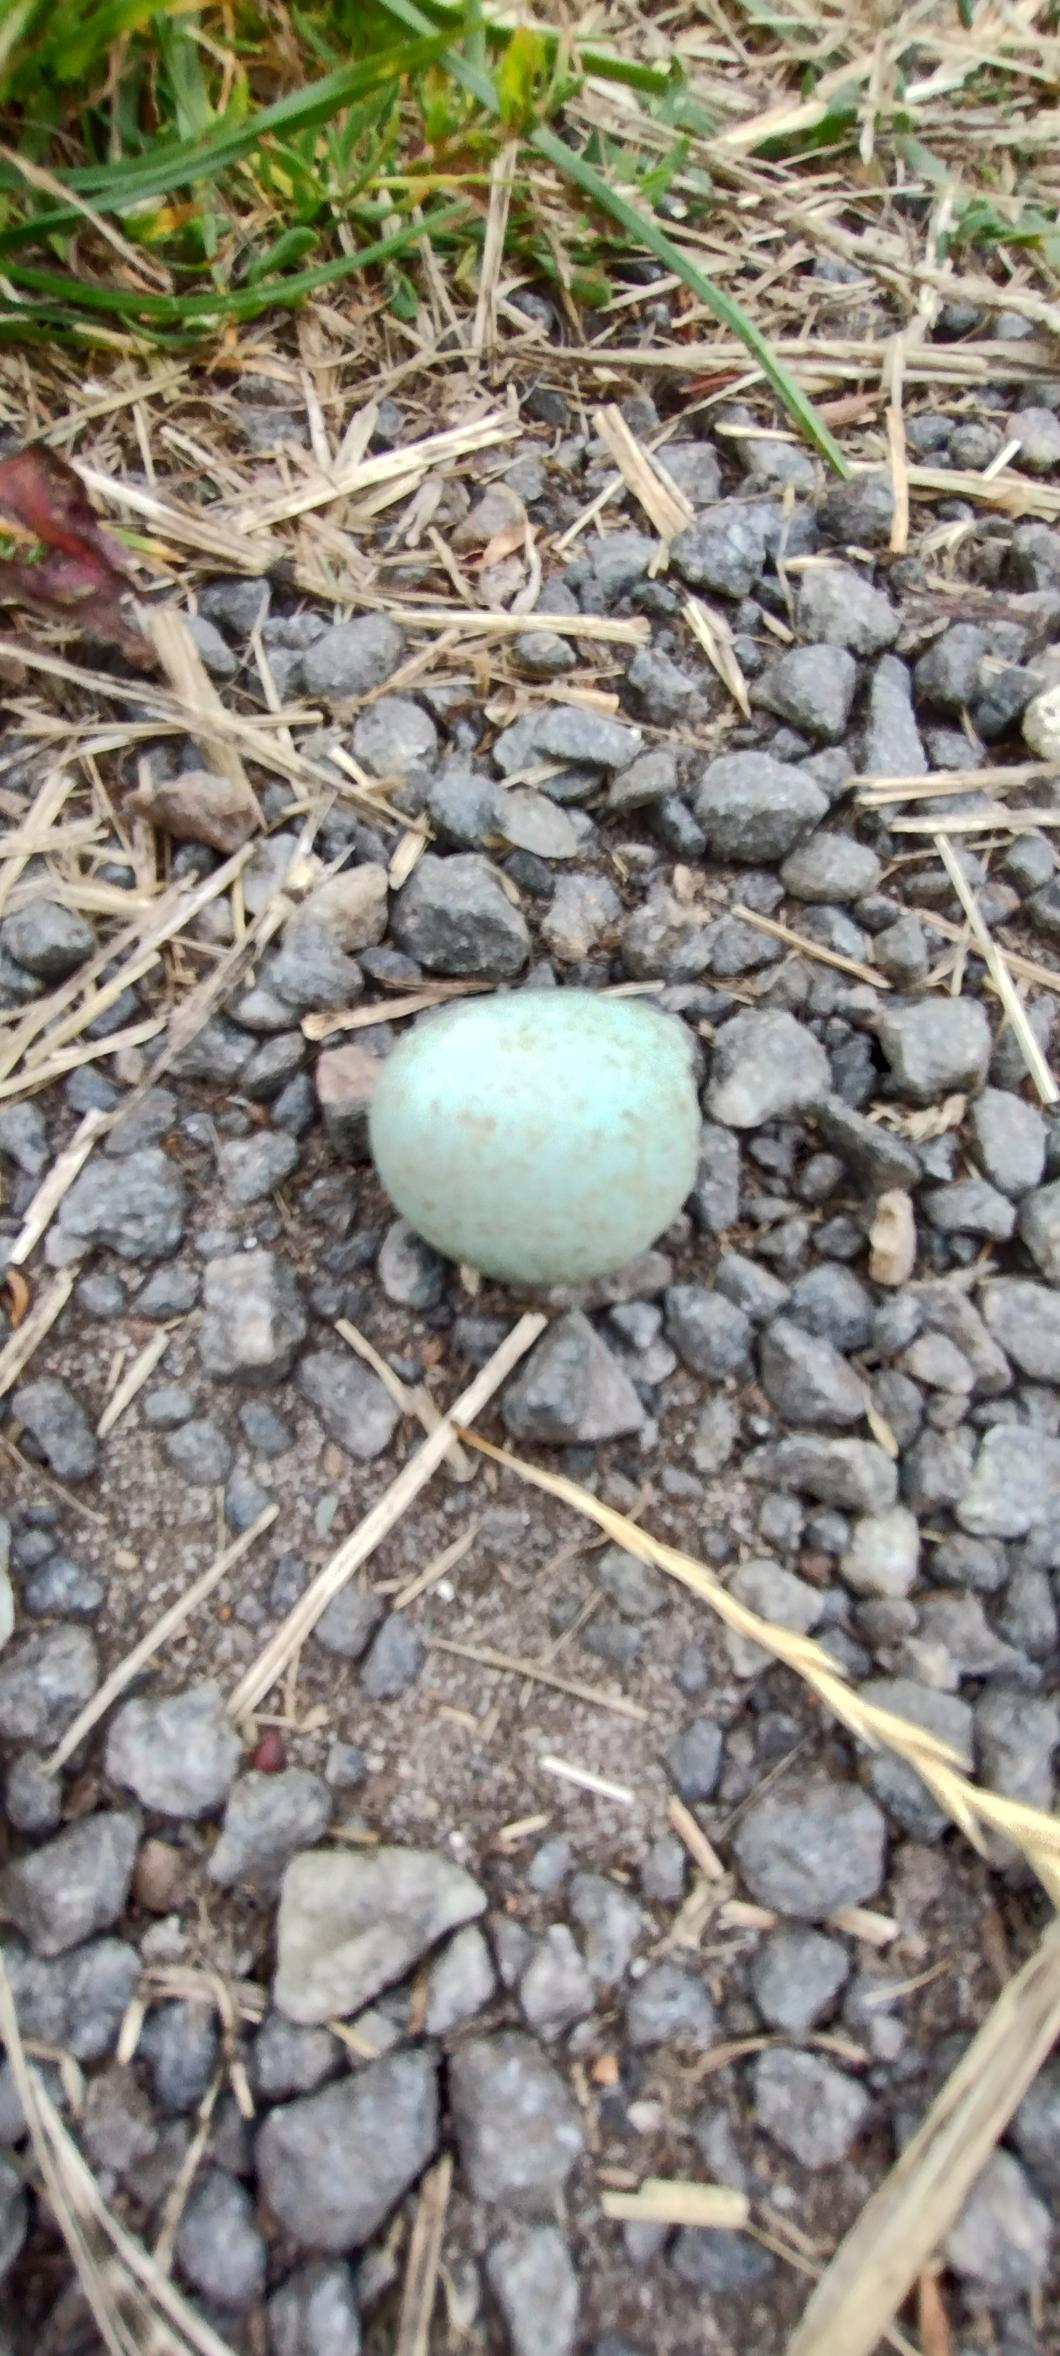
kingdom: Animalia
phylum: Chordata
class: Aves
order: Passeriformes
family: Turdidae
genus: Turdus
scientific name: Turdus merula
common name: Solsort
